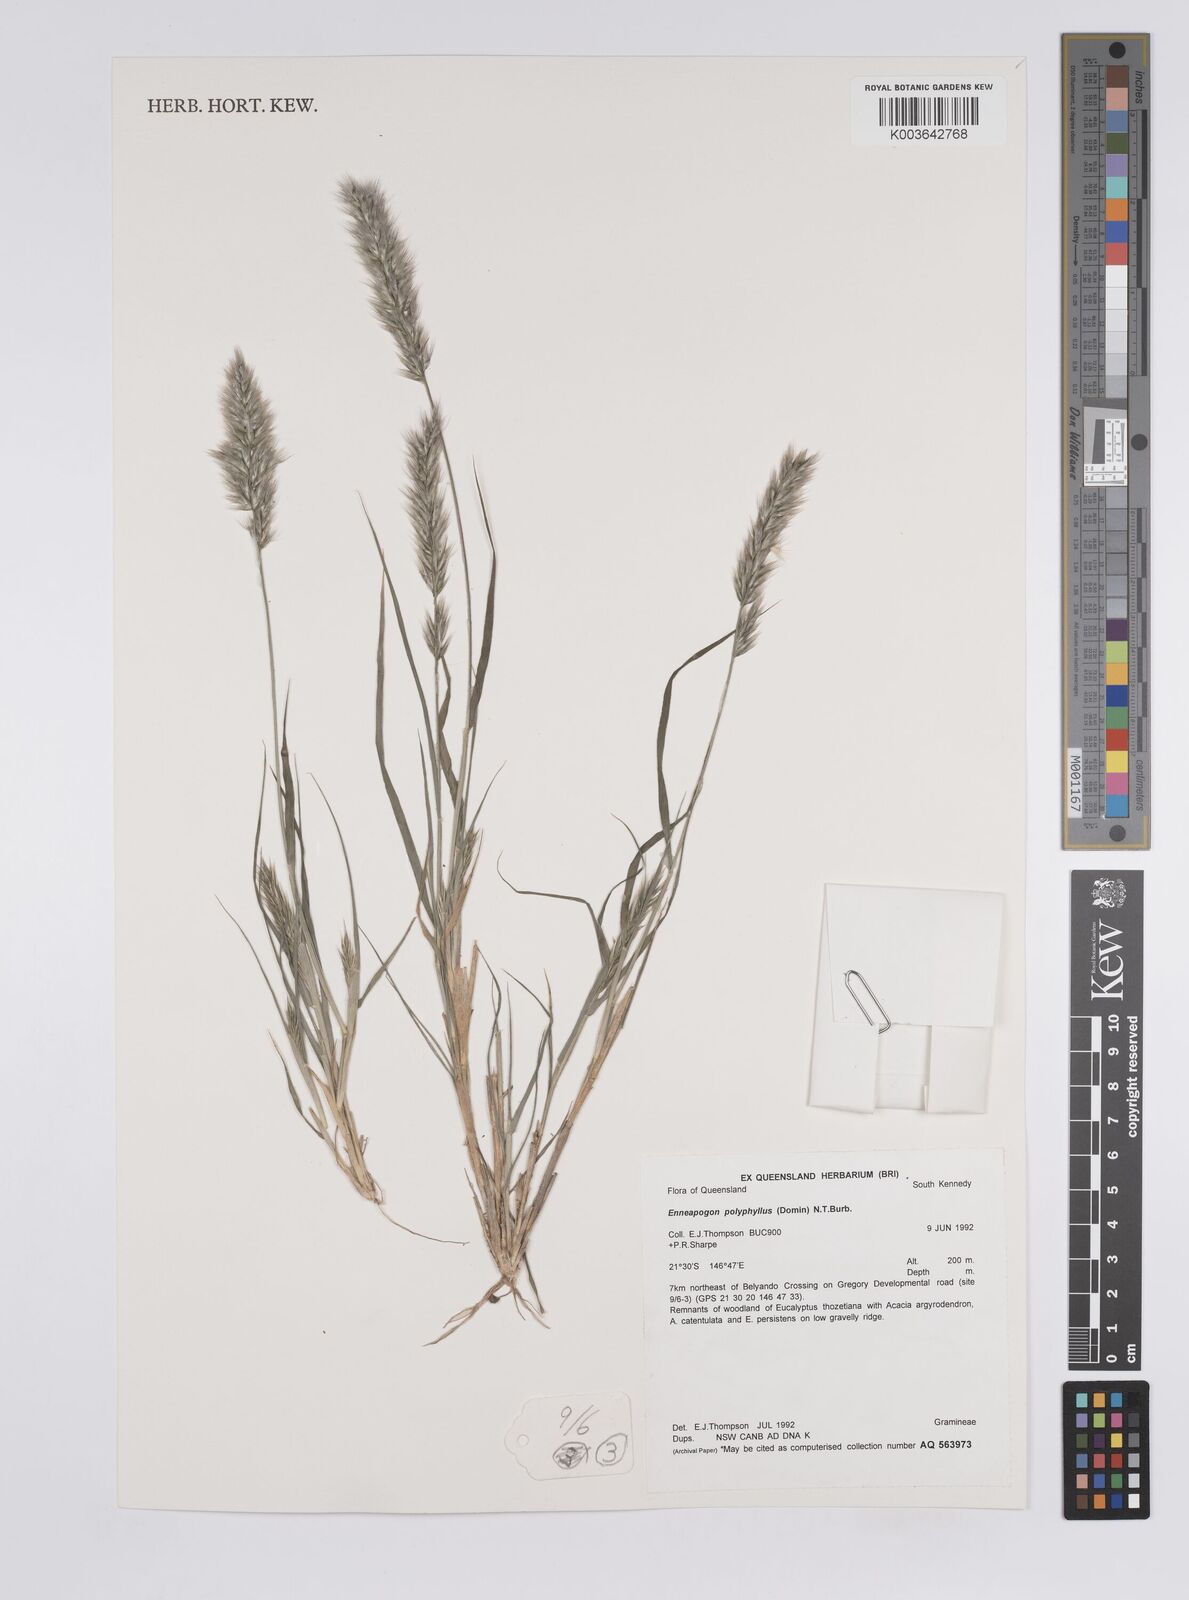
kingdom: Plantae
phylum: Tracheophyta
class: Liliopsida
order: Poales
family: Poaceae
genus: Enneapogon
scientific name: Enneapogon polyphyllus
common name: Leafy nineawn
